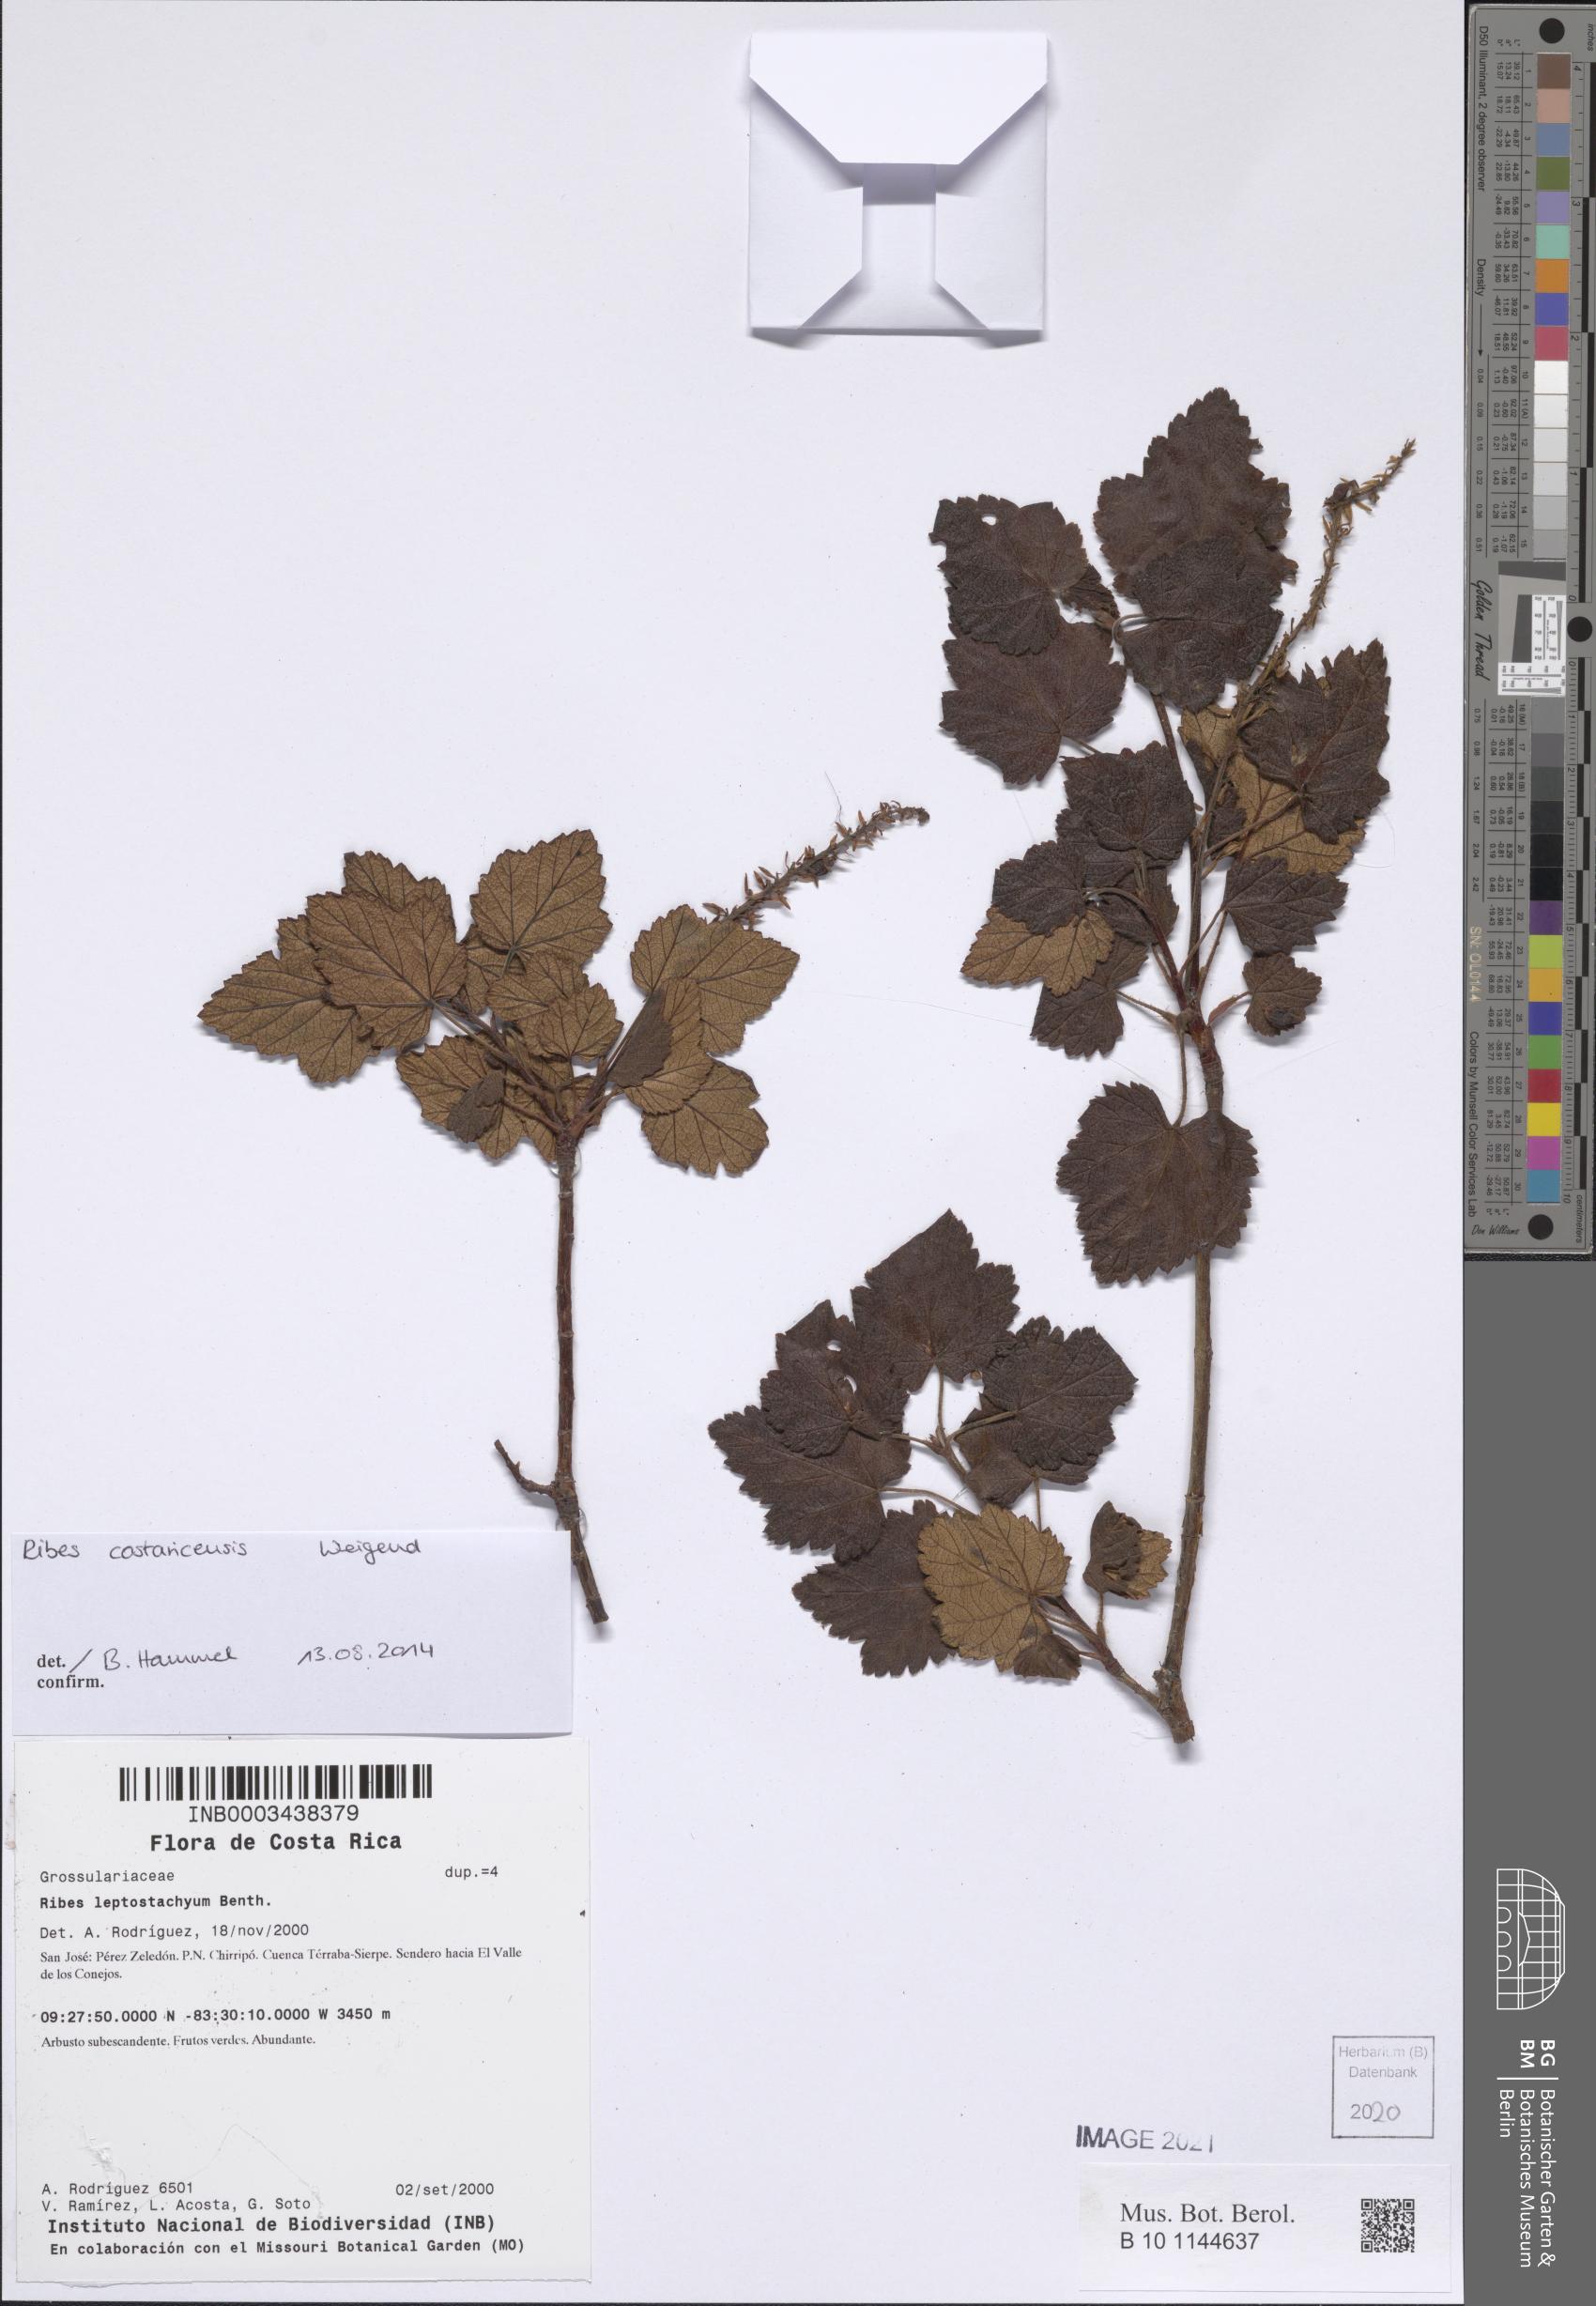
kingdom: Plantae
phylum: Tracheophyta
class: Magnoliopsida
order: Saxifragales
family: Grossulariaceae
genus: Ribes
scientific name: Ribes costaricensis
